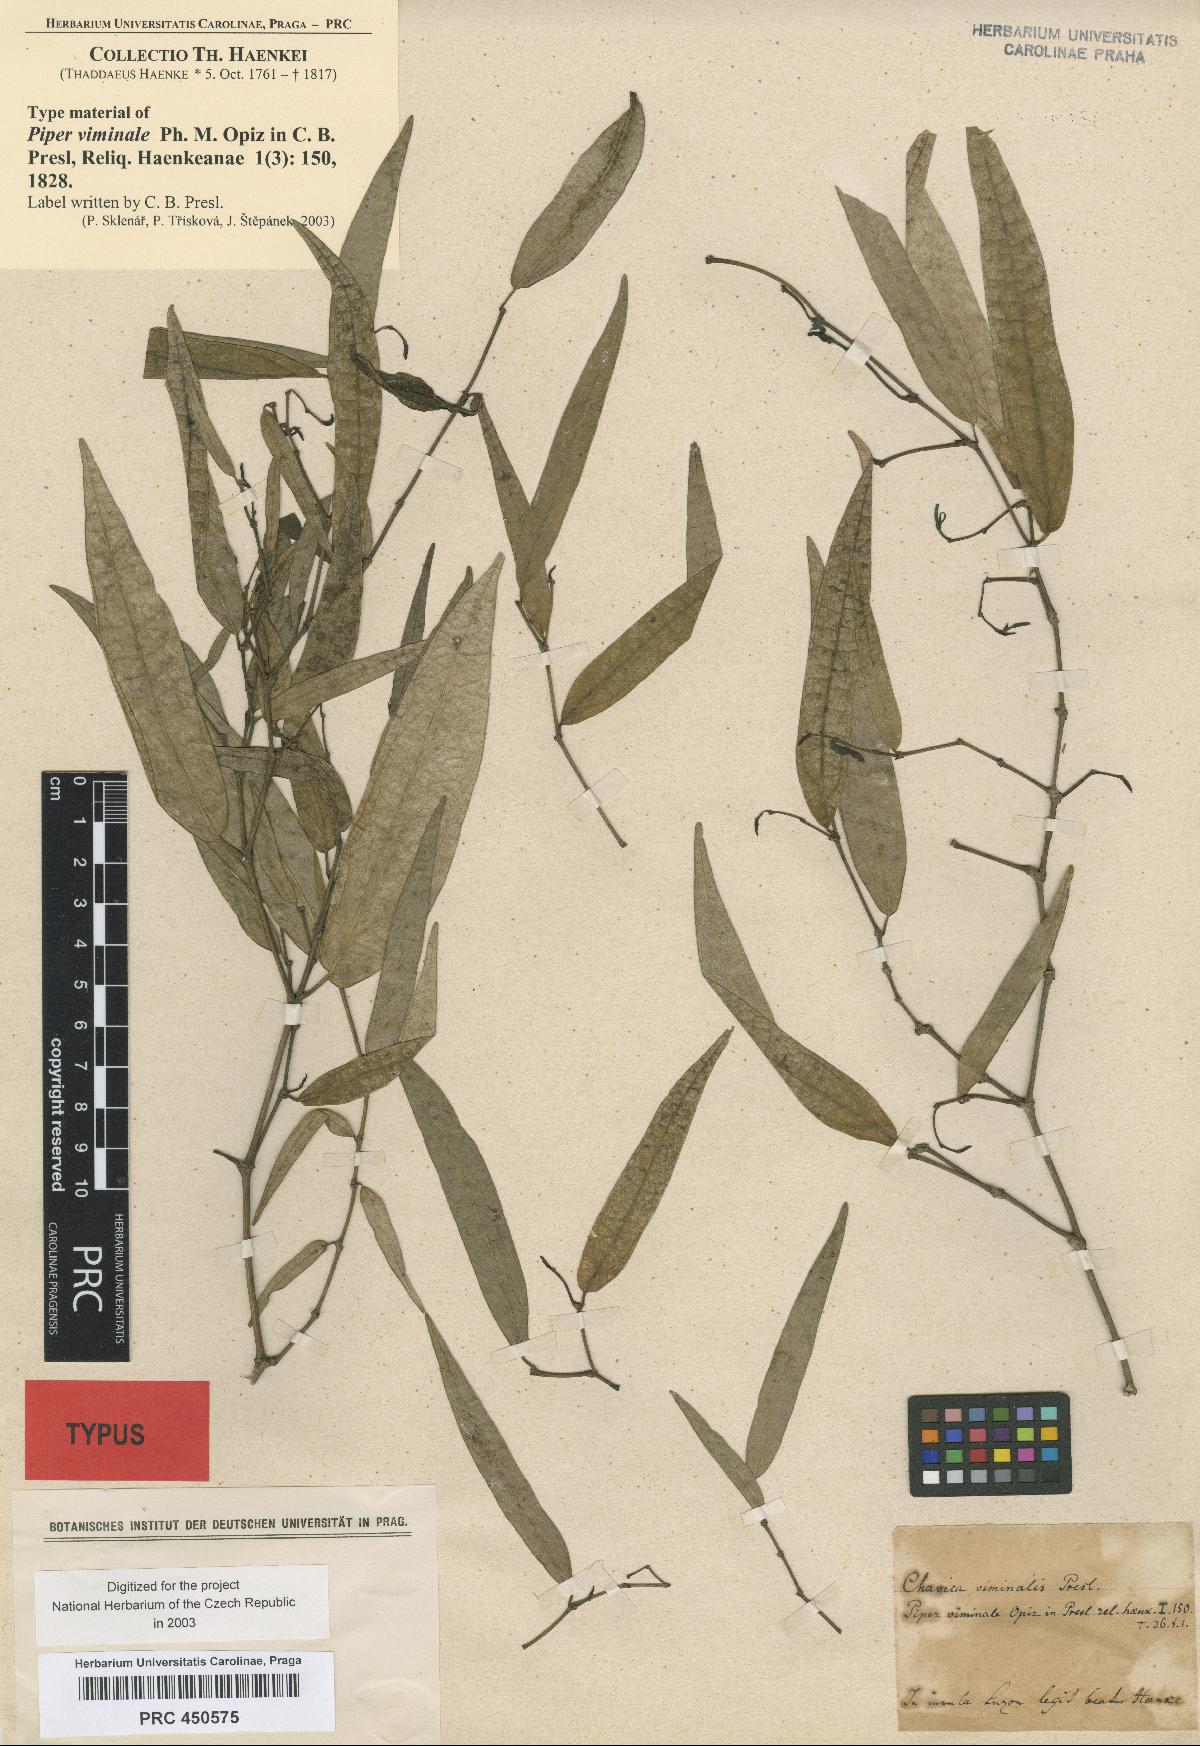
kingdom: Plantae
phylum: Tracheophyta
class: Magnoliopsida
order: Piperales
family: Piperaceae
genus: Piper
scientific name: Piper lanatum
